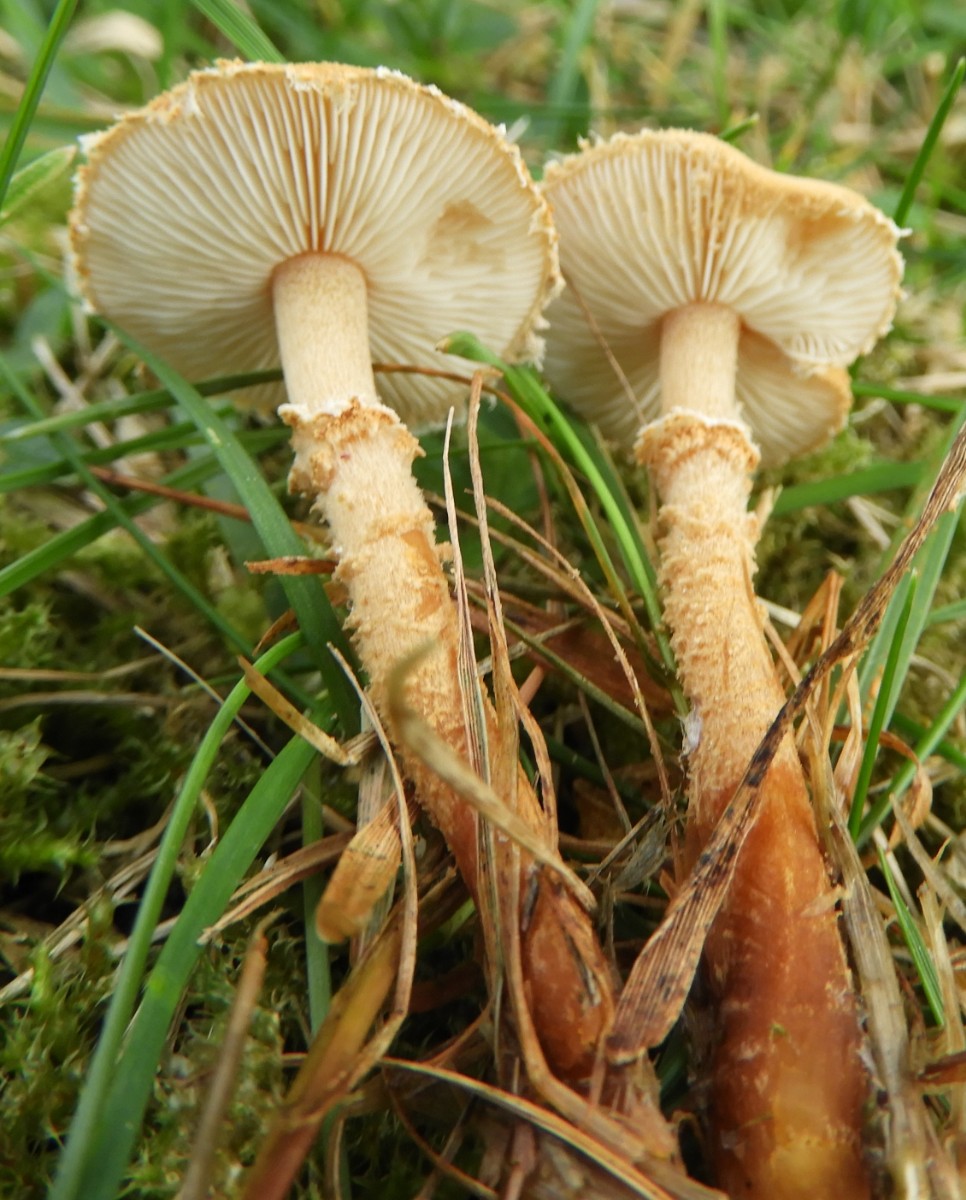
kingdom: Fungi
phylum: Basidiomycota
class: Agaricomycetes
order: Agaricales
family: Tricholomataceae
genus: Cystoderma
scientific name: Cystoderma amianthinum
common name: okkergul grynhat
